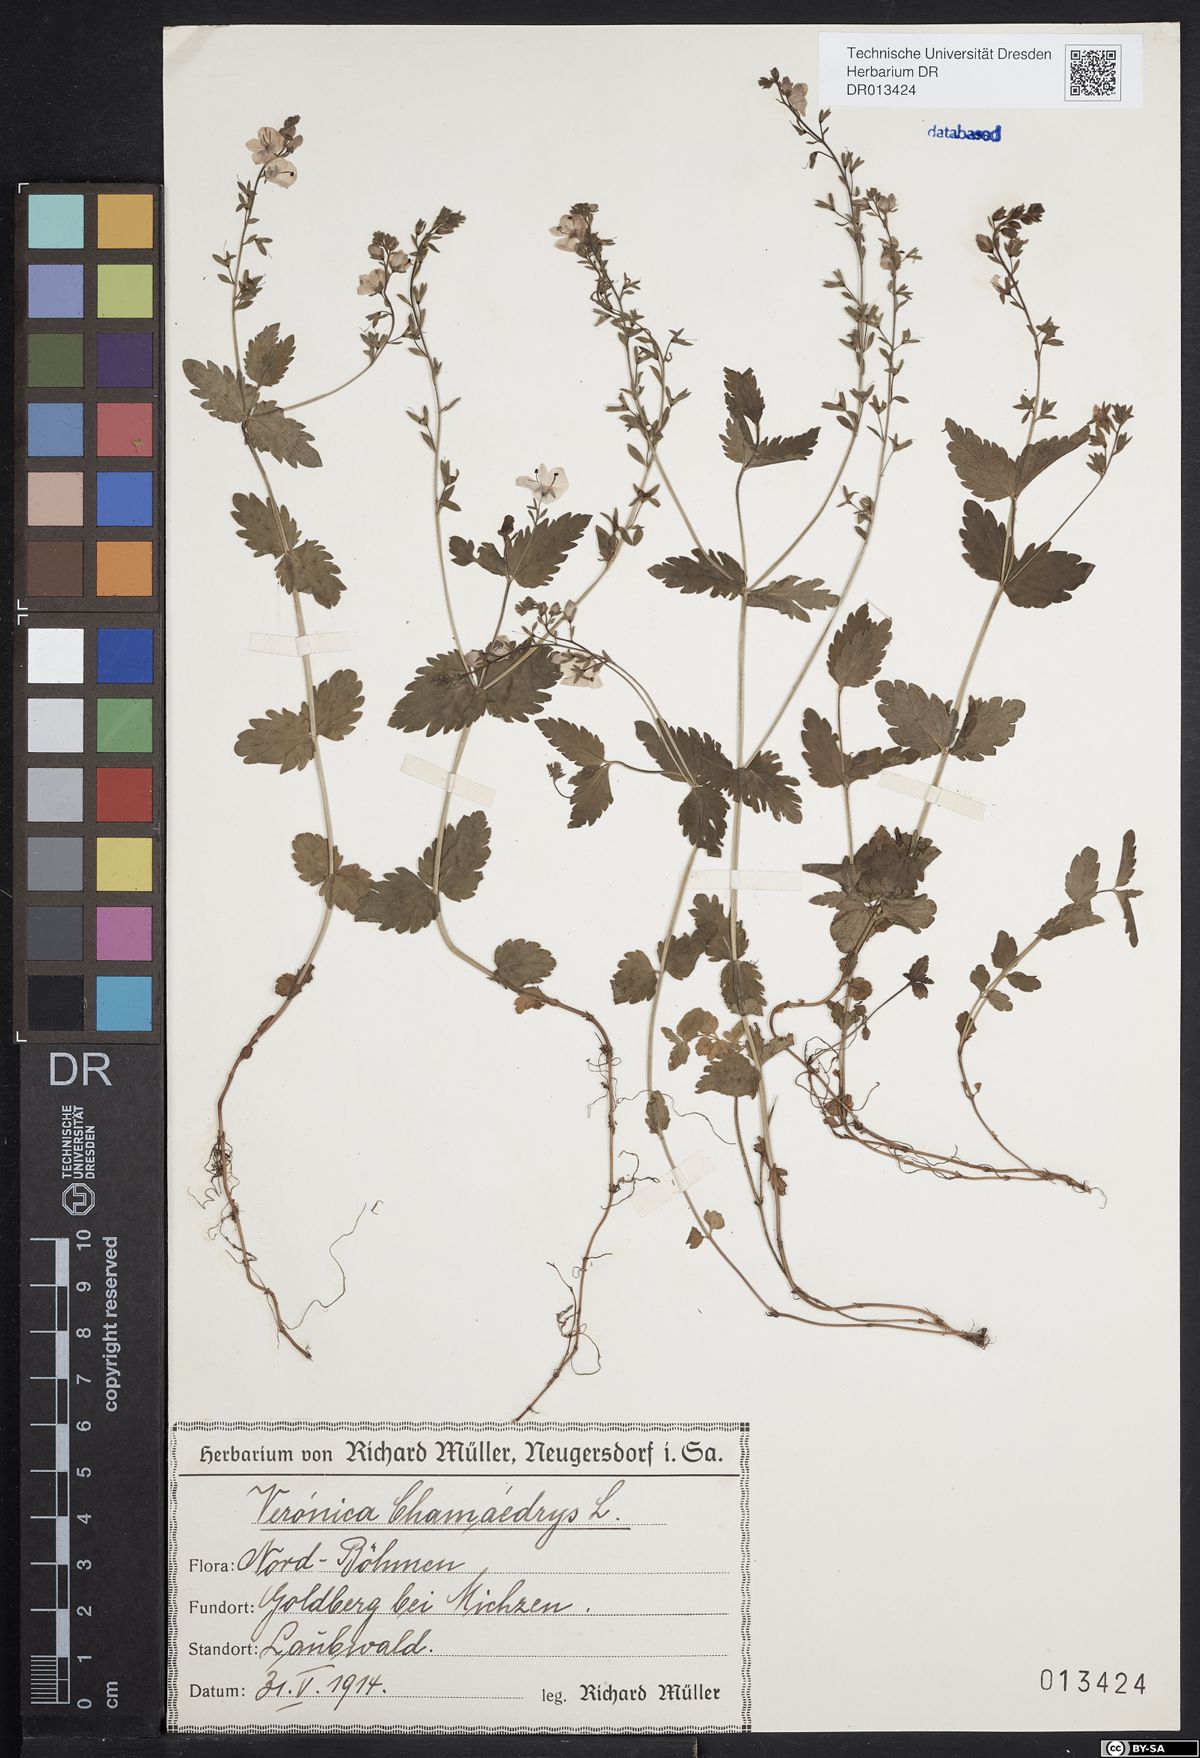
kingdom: Plantae
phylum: Tracheophyta
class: Magnoliopsida
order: Lamiales
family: Plantaginaceae
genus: Veronica
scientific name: Veronica chamaedrys
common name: Germander speedwell
